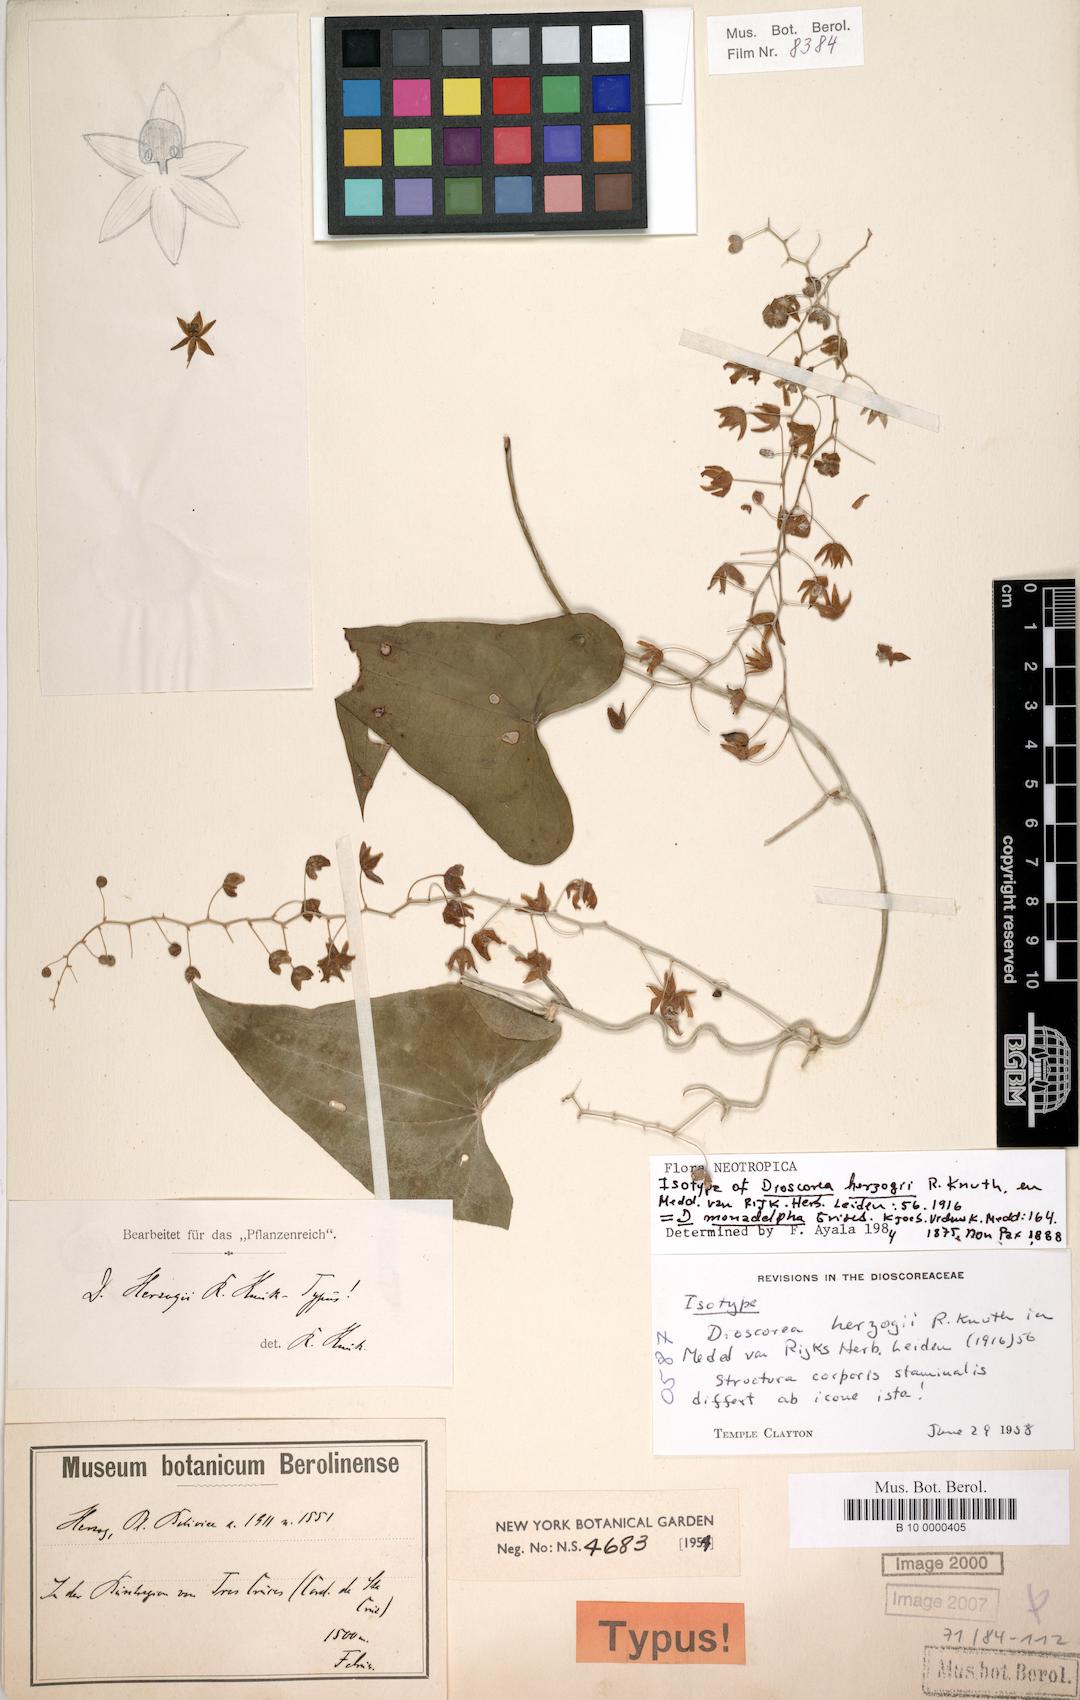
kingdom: Plantae
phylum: Tracheophyta
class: Liliopsida
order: Dioscoreales
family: Dioscoreaceae
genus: Dioscorea
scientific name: Dioscorea monadelpha
